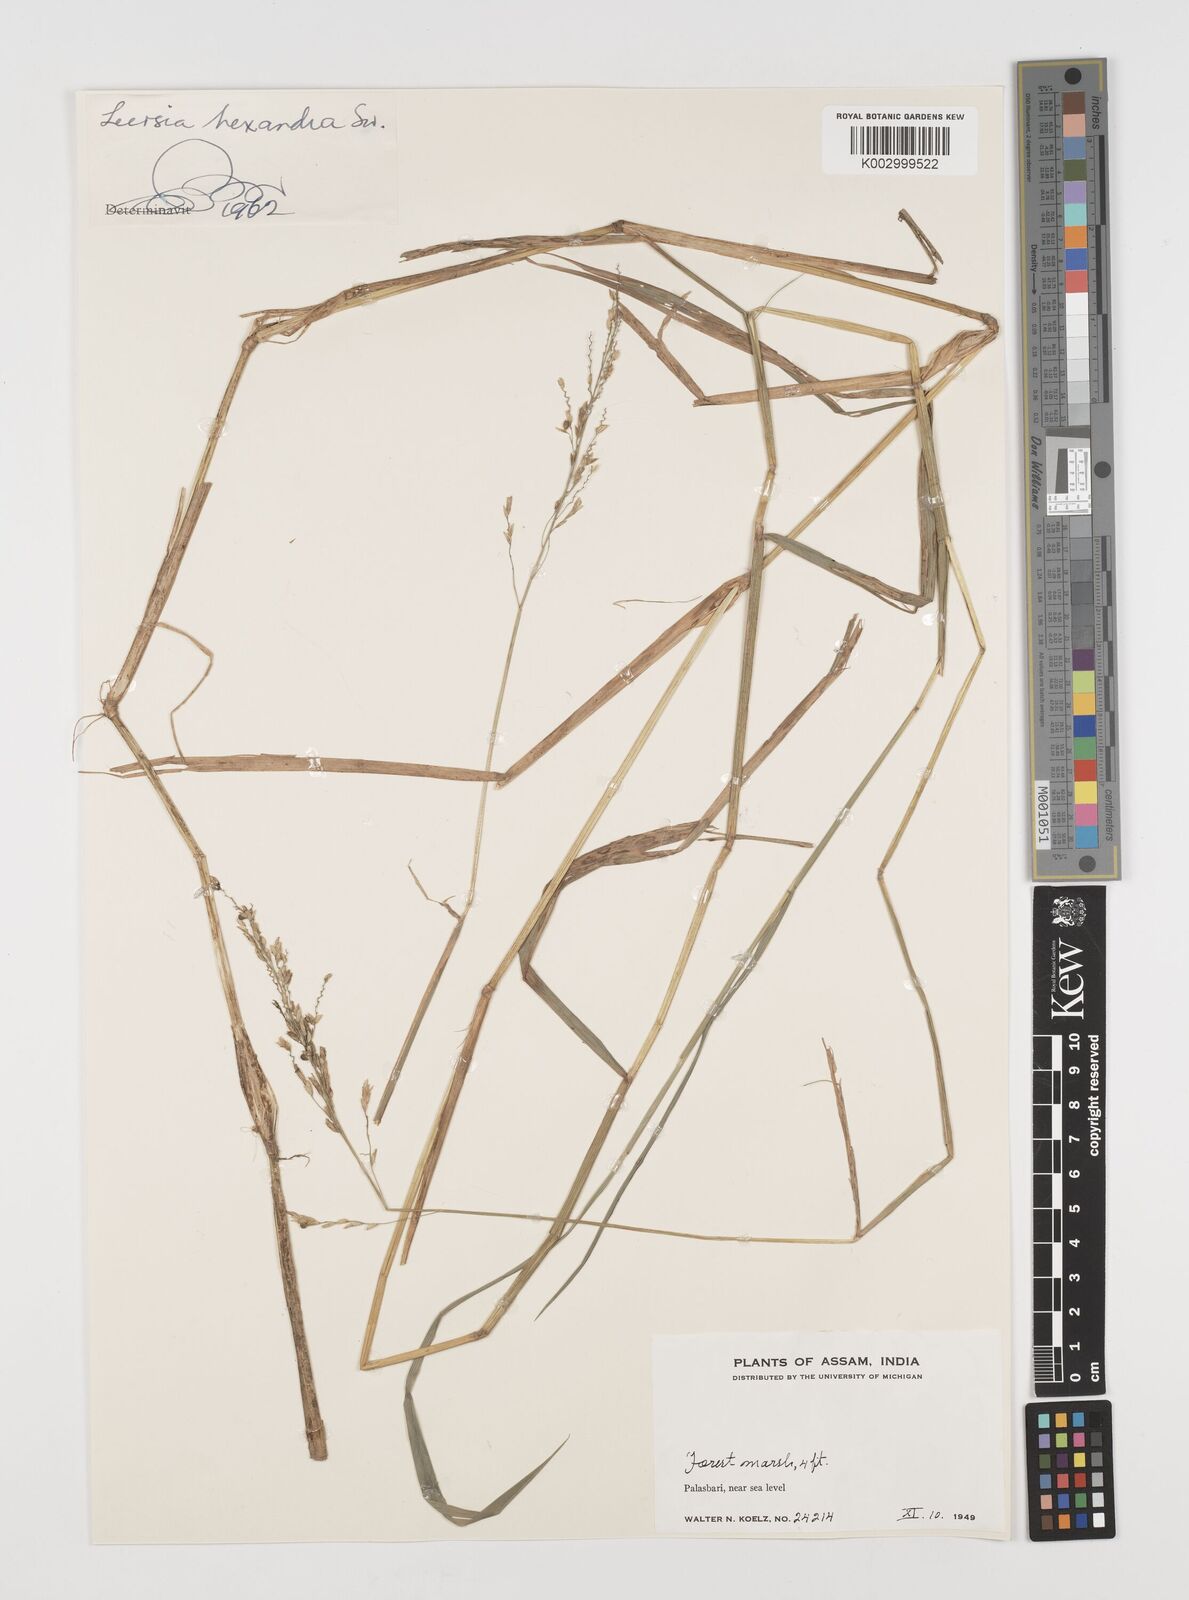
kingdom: Plantae
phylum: Tracheophyta
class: Liliopsida
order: Poales
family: Poaceae
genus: Leersia
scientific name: Leersia hexandra
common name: Southern cut grass
